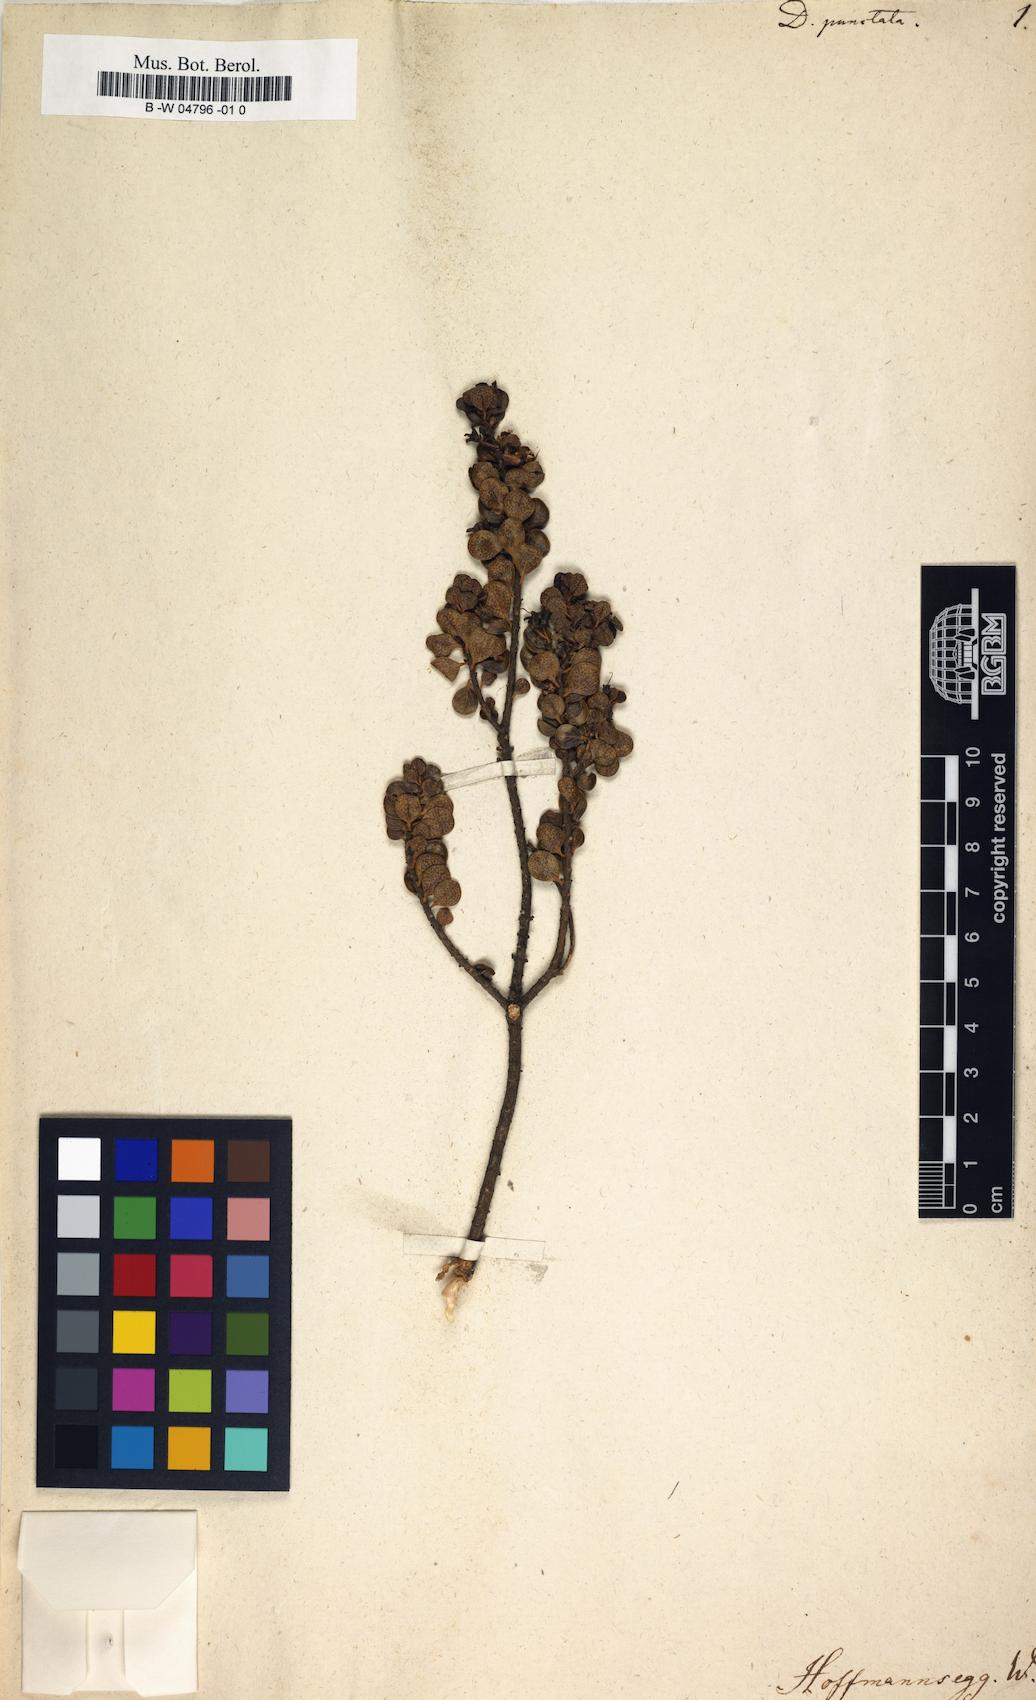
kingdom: Plantae
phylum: Tracheophyta
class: Magnoliopsida
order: Sapindales
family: Rutaceae
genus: Diosma
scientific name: Diosma punctata
